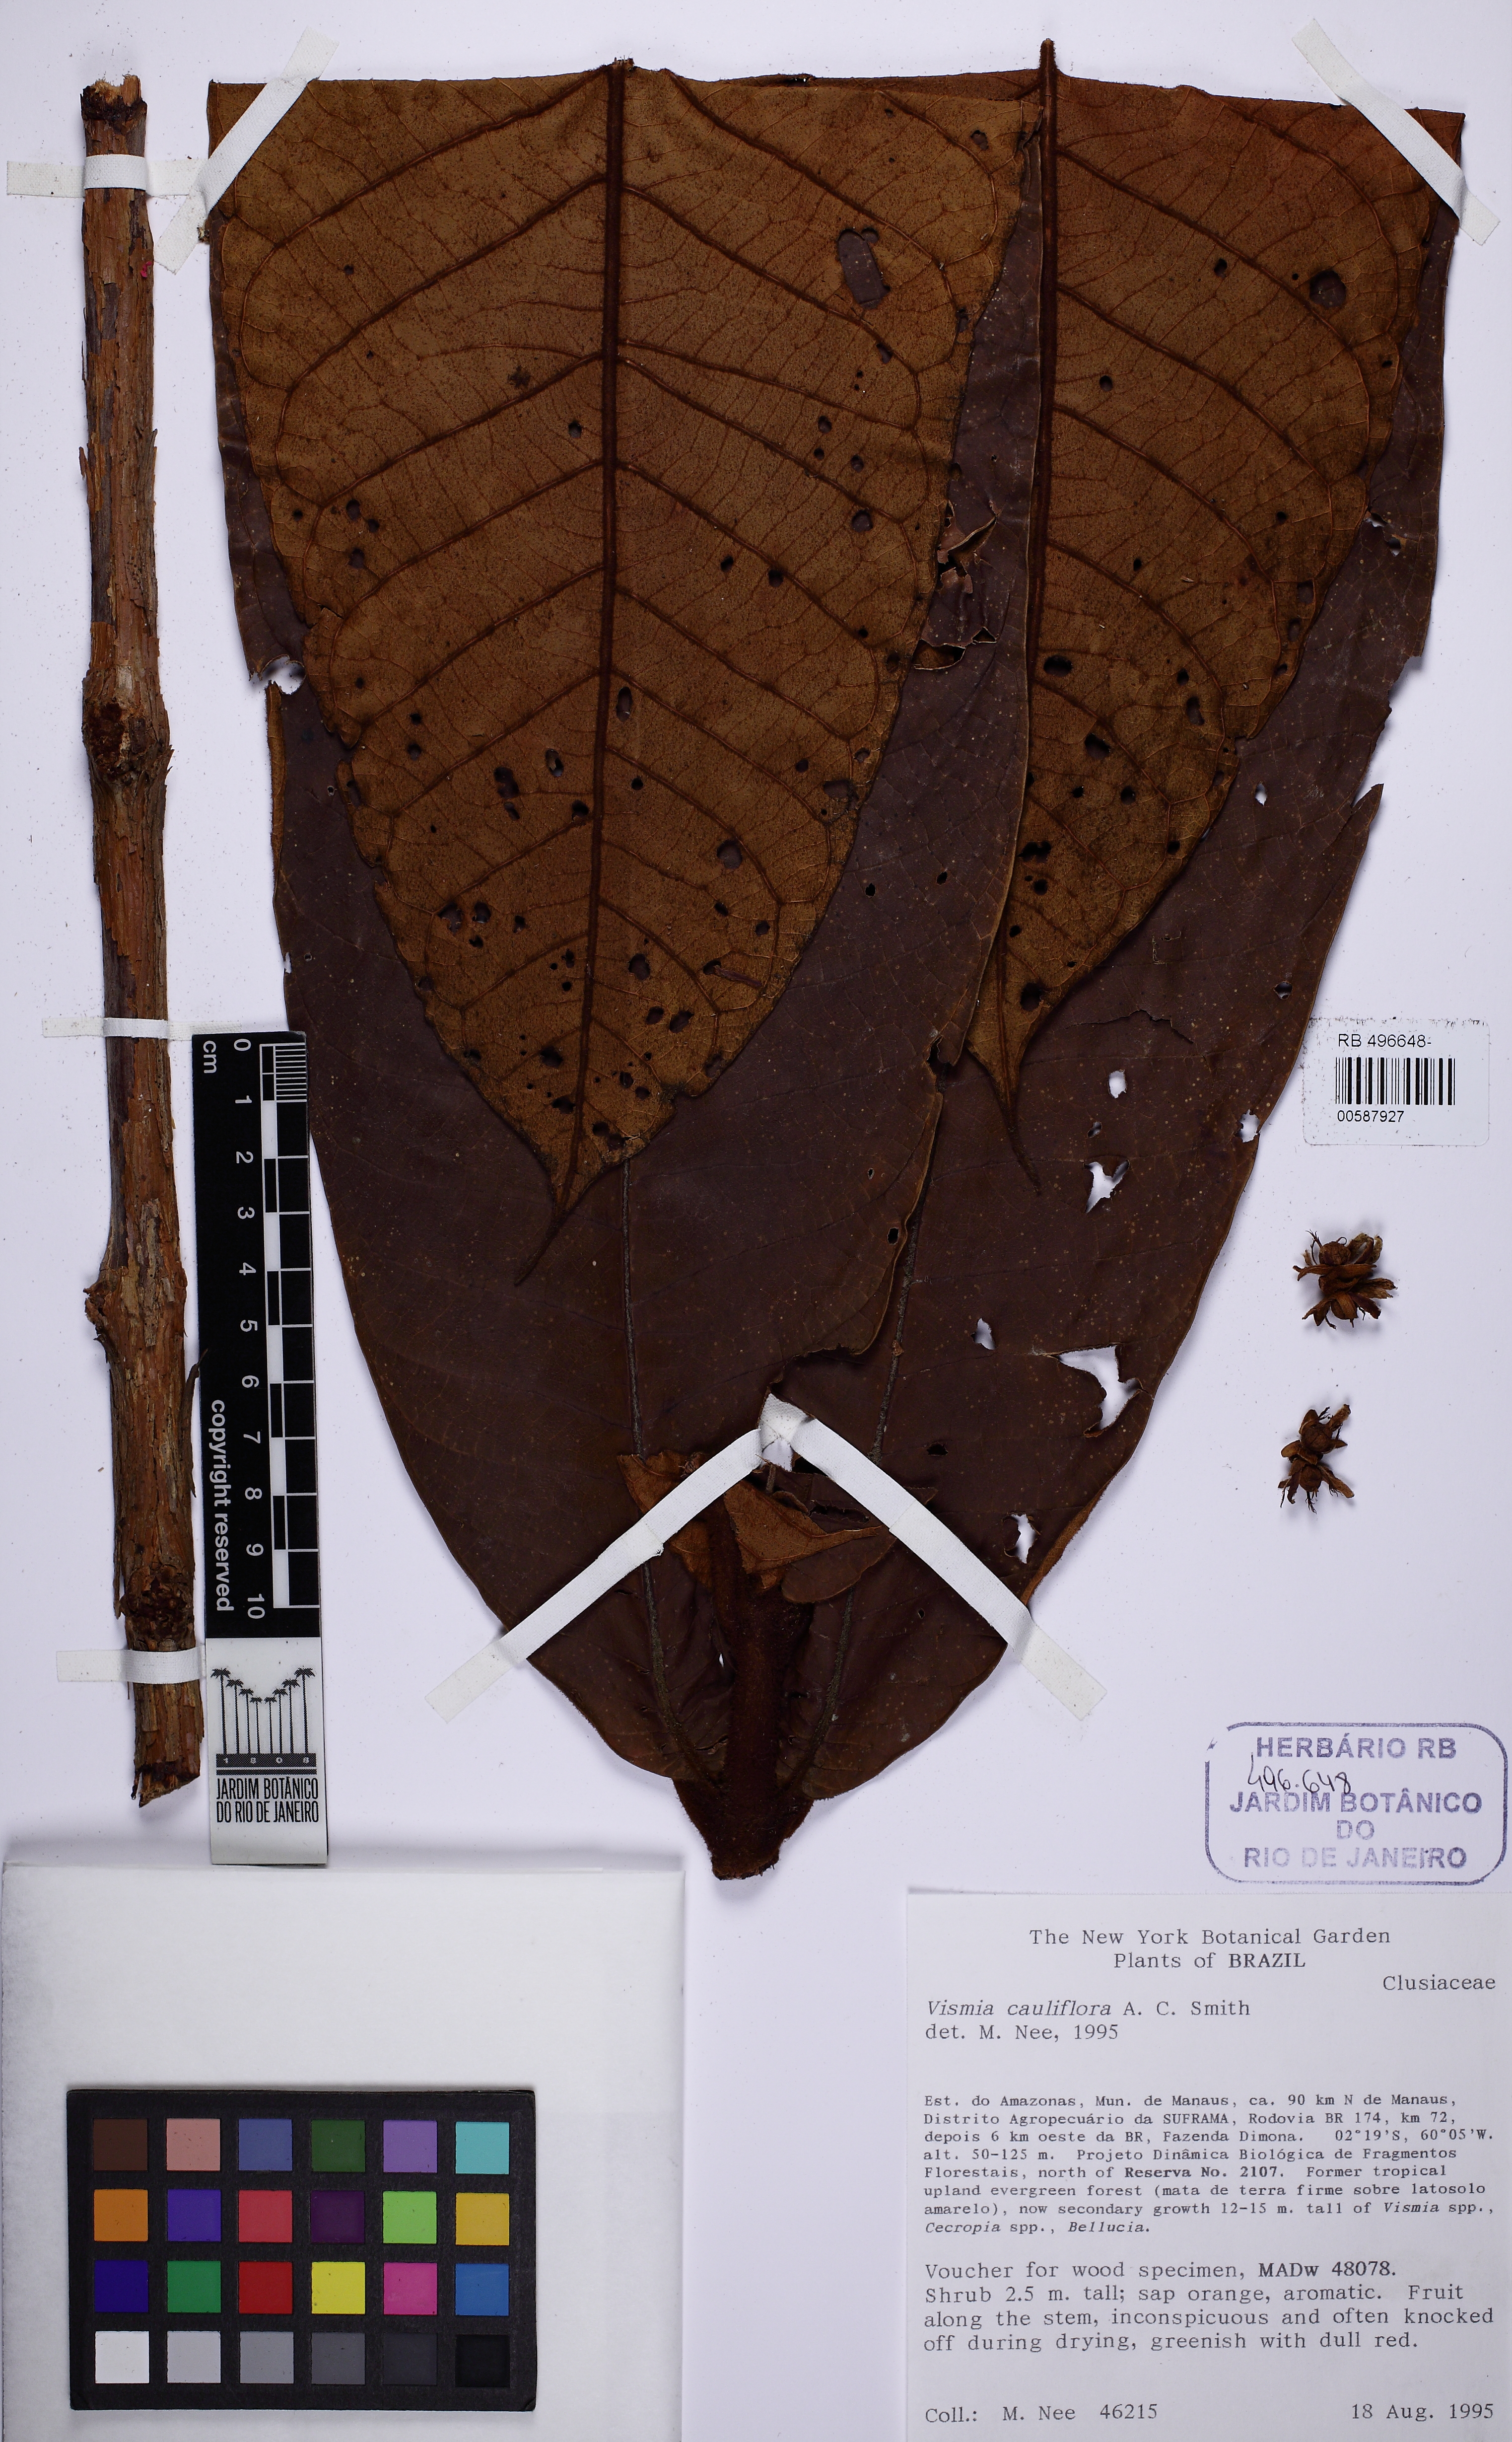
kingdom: Plantae
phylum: Tracheophyta
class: Magnoliopsida
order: Malpighiales
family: Hypericaceae
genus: Vismia
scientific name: Vismia cauliflora
